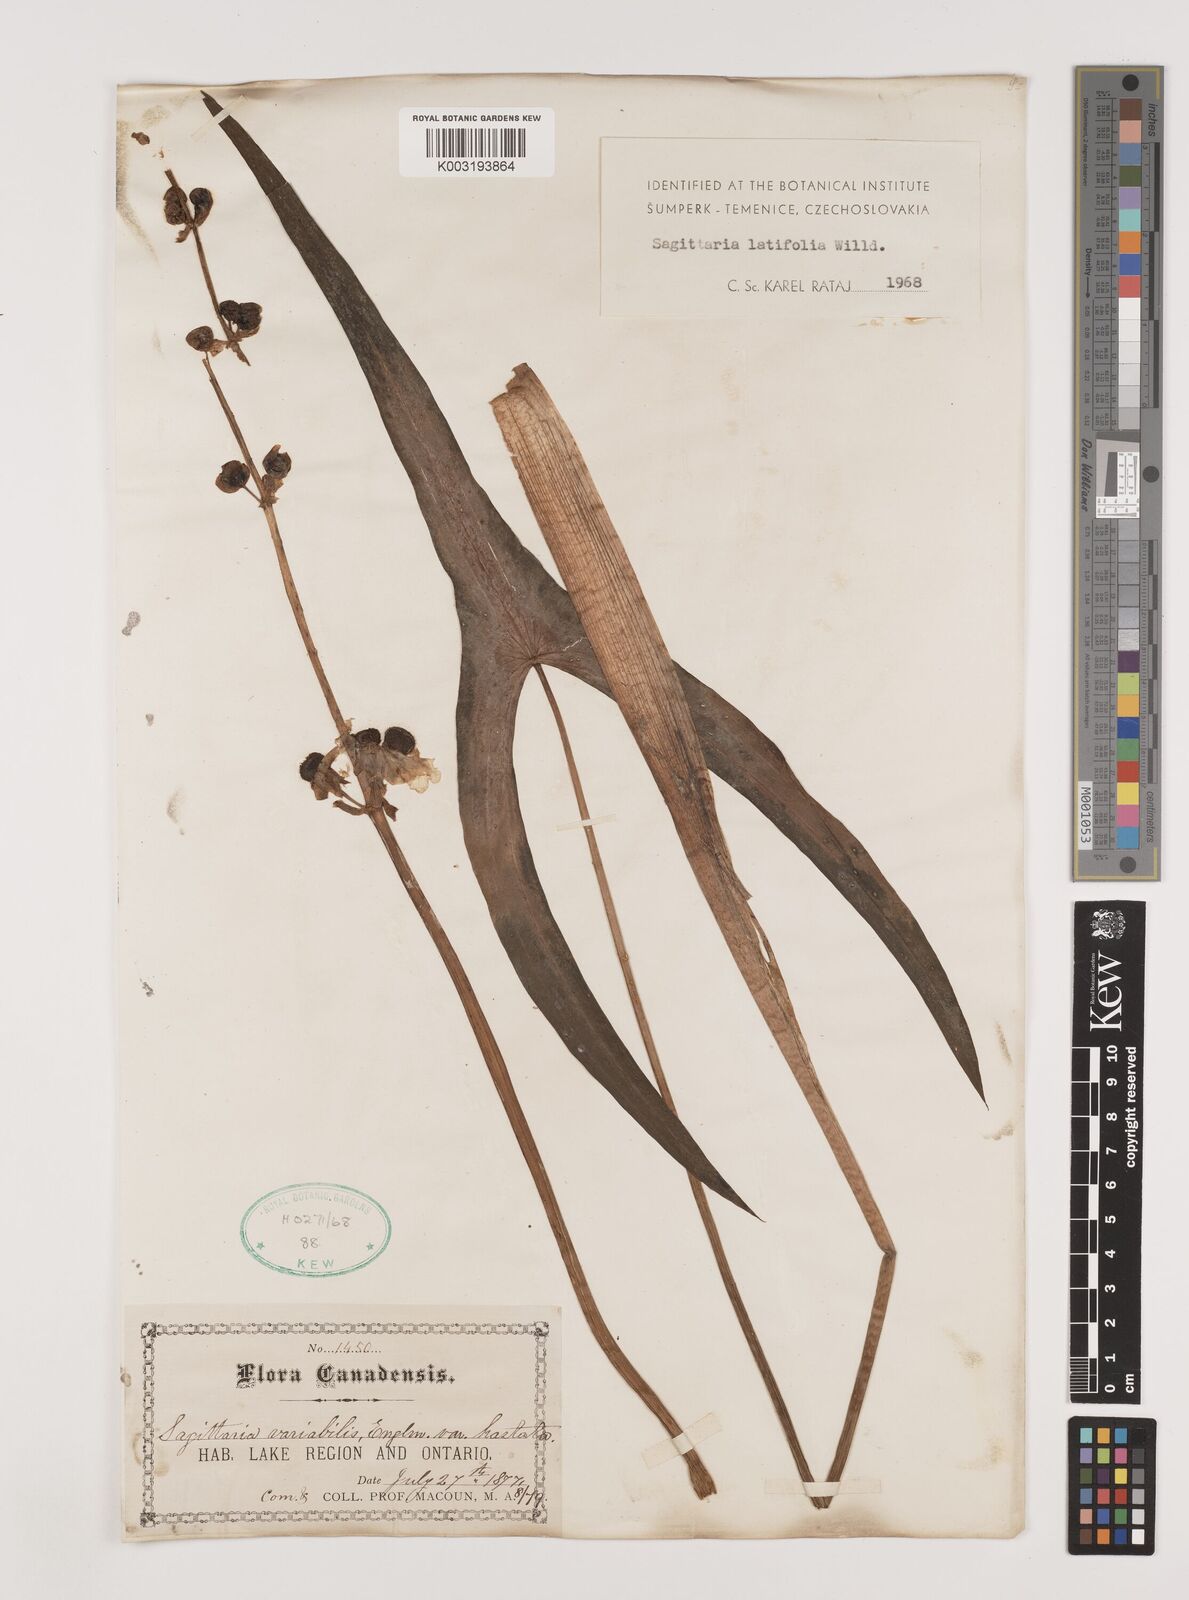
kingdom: Plantae
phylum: Tracheophyta
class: Liliopsida
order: Alismatales
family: Alismataceae
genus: Sagittaria
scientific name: Sagittaria latifolia
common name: Duck-potato
